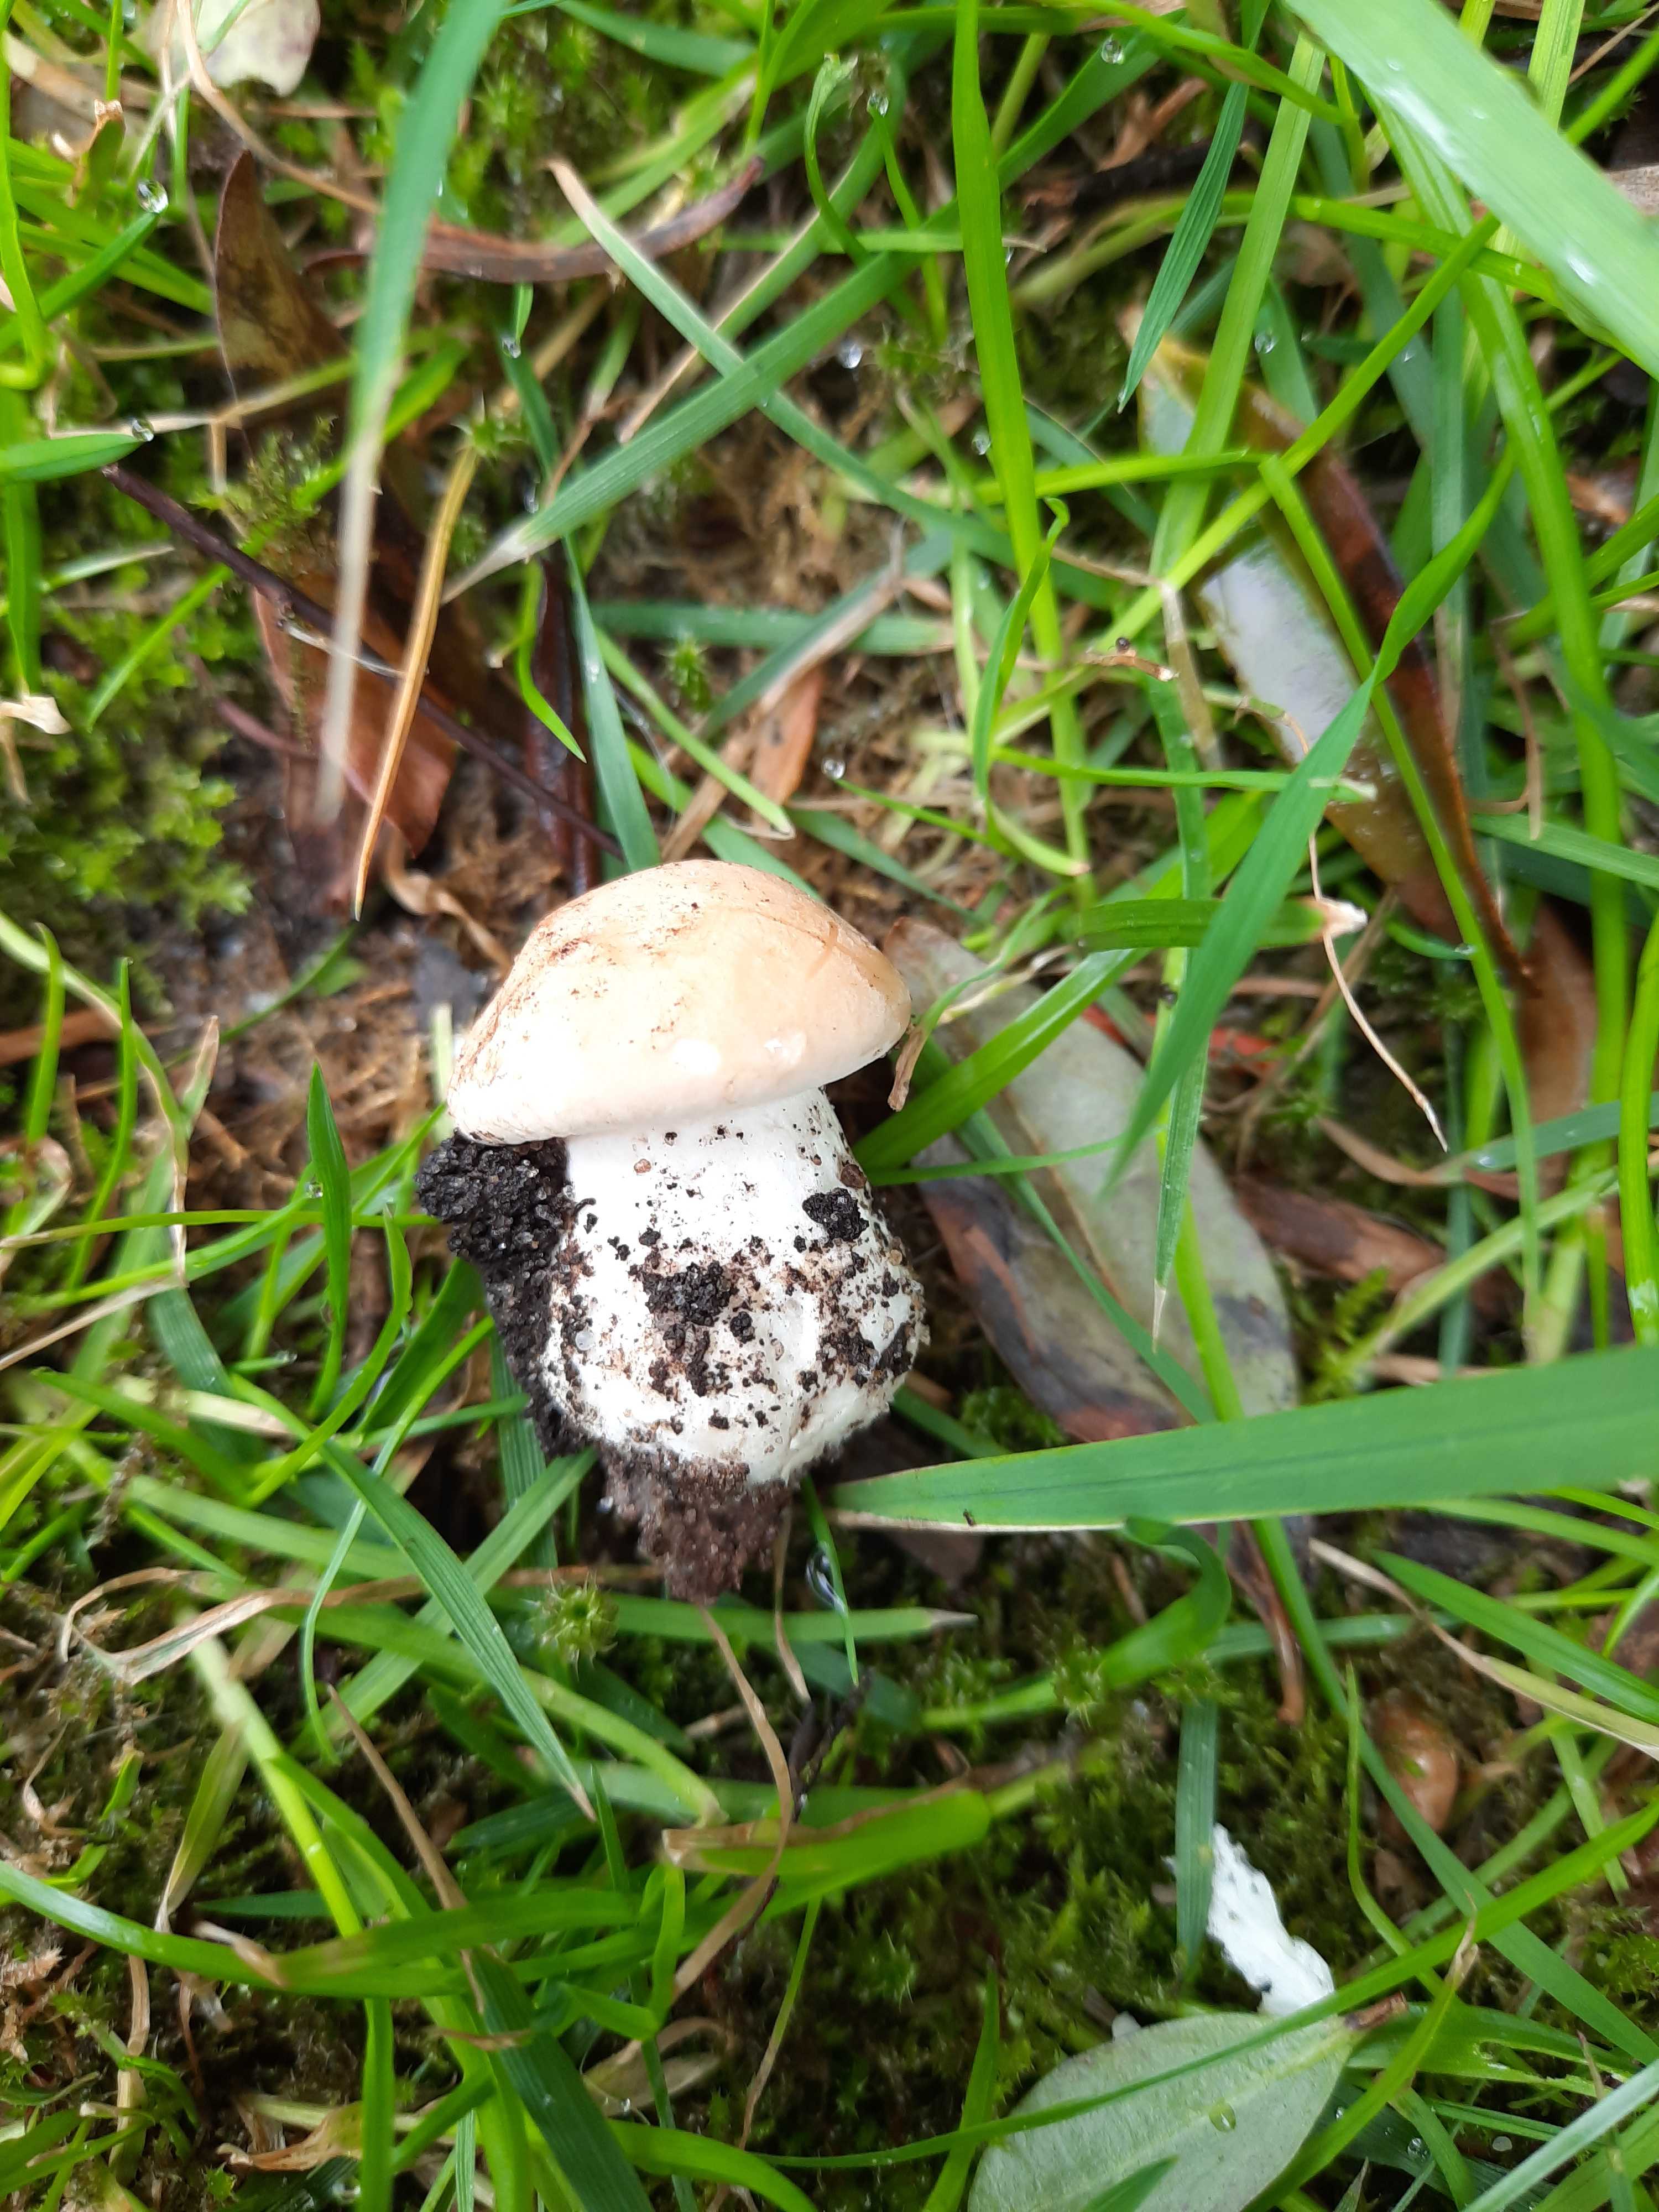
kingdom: Fungi
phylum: Basidiomycota
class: Agaricomycetes
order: Agaricales
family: Lyophyllaceae
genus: Calocybe
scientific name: Calocybe gambosa
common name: vårmusseron
